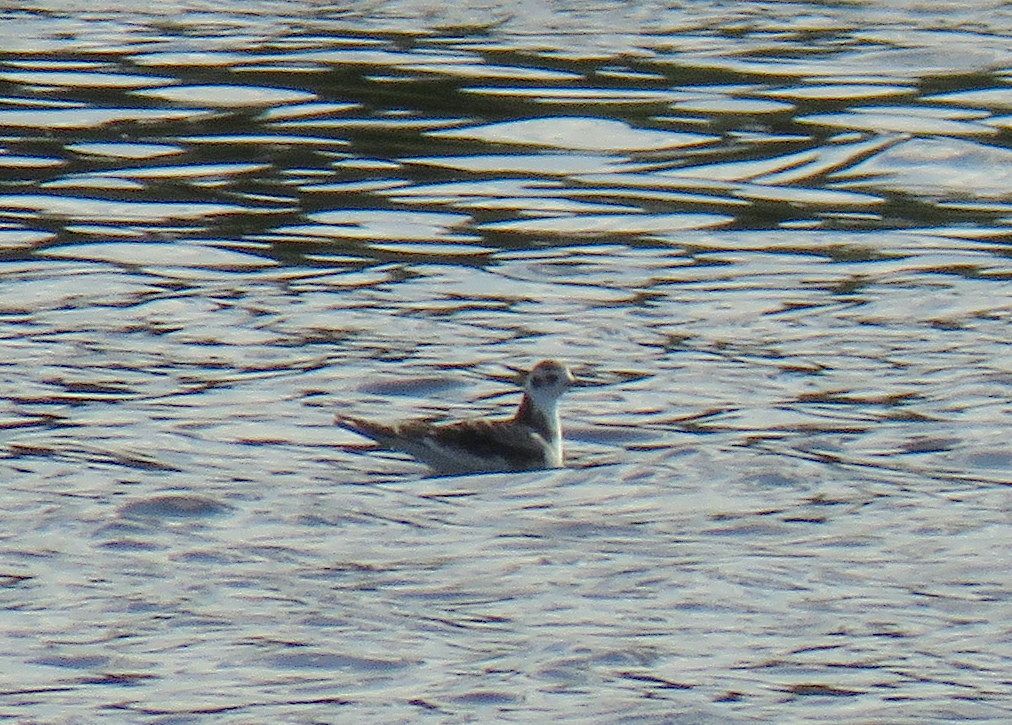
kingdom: Animalia
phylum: Chordata
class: Aves
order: Charadriiformes
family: Laridae
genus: Hydrocoloeus
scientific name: Hydrocoloeus minutus
